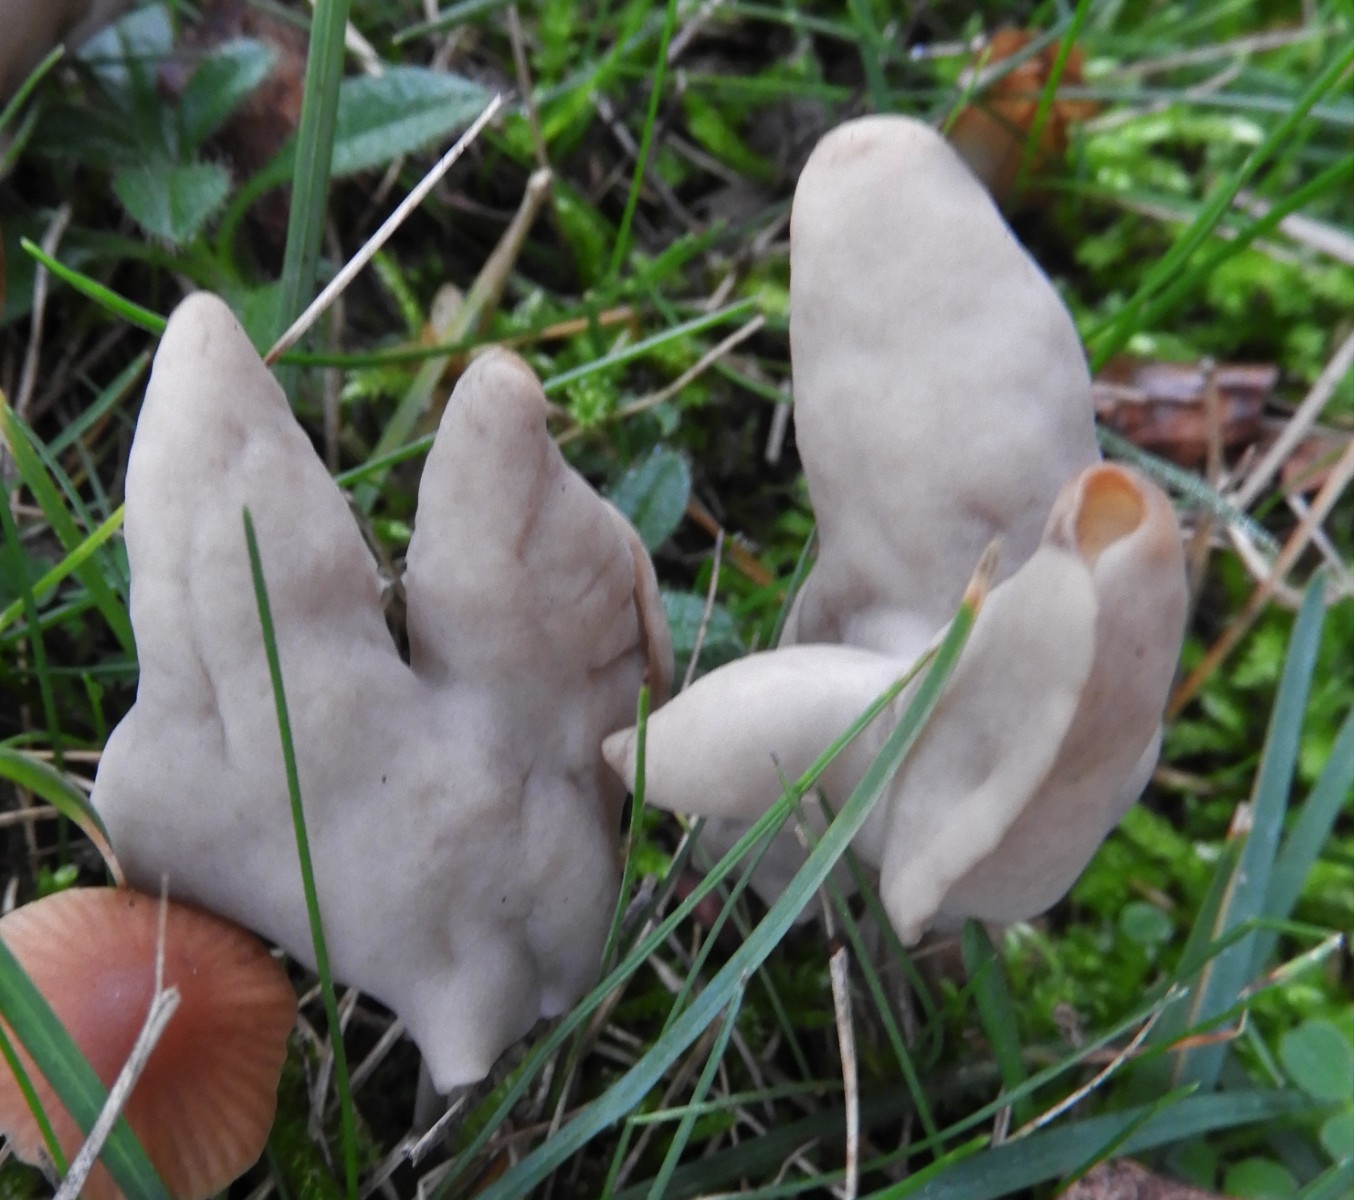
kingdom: Fungi
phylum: Ascomycota
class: Pezizomycetes
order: Pezizales
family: Helvellaceae
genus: Helvella
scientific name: Helvella lacunosa
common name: grubet foldhat
